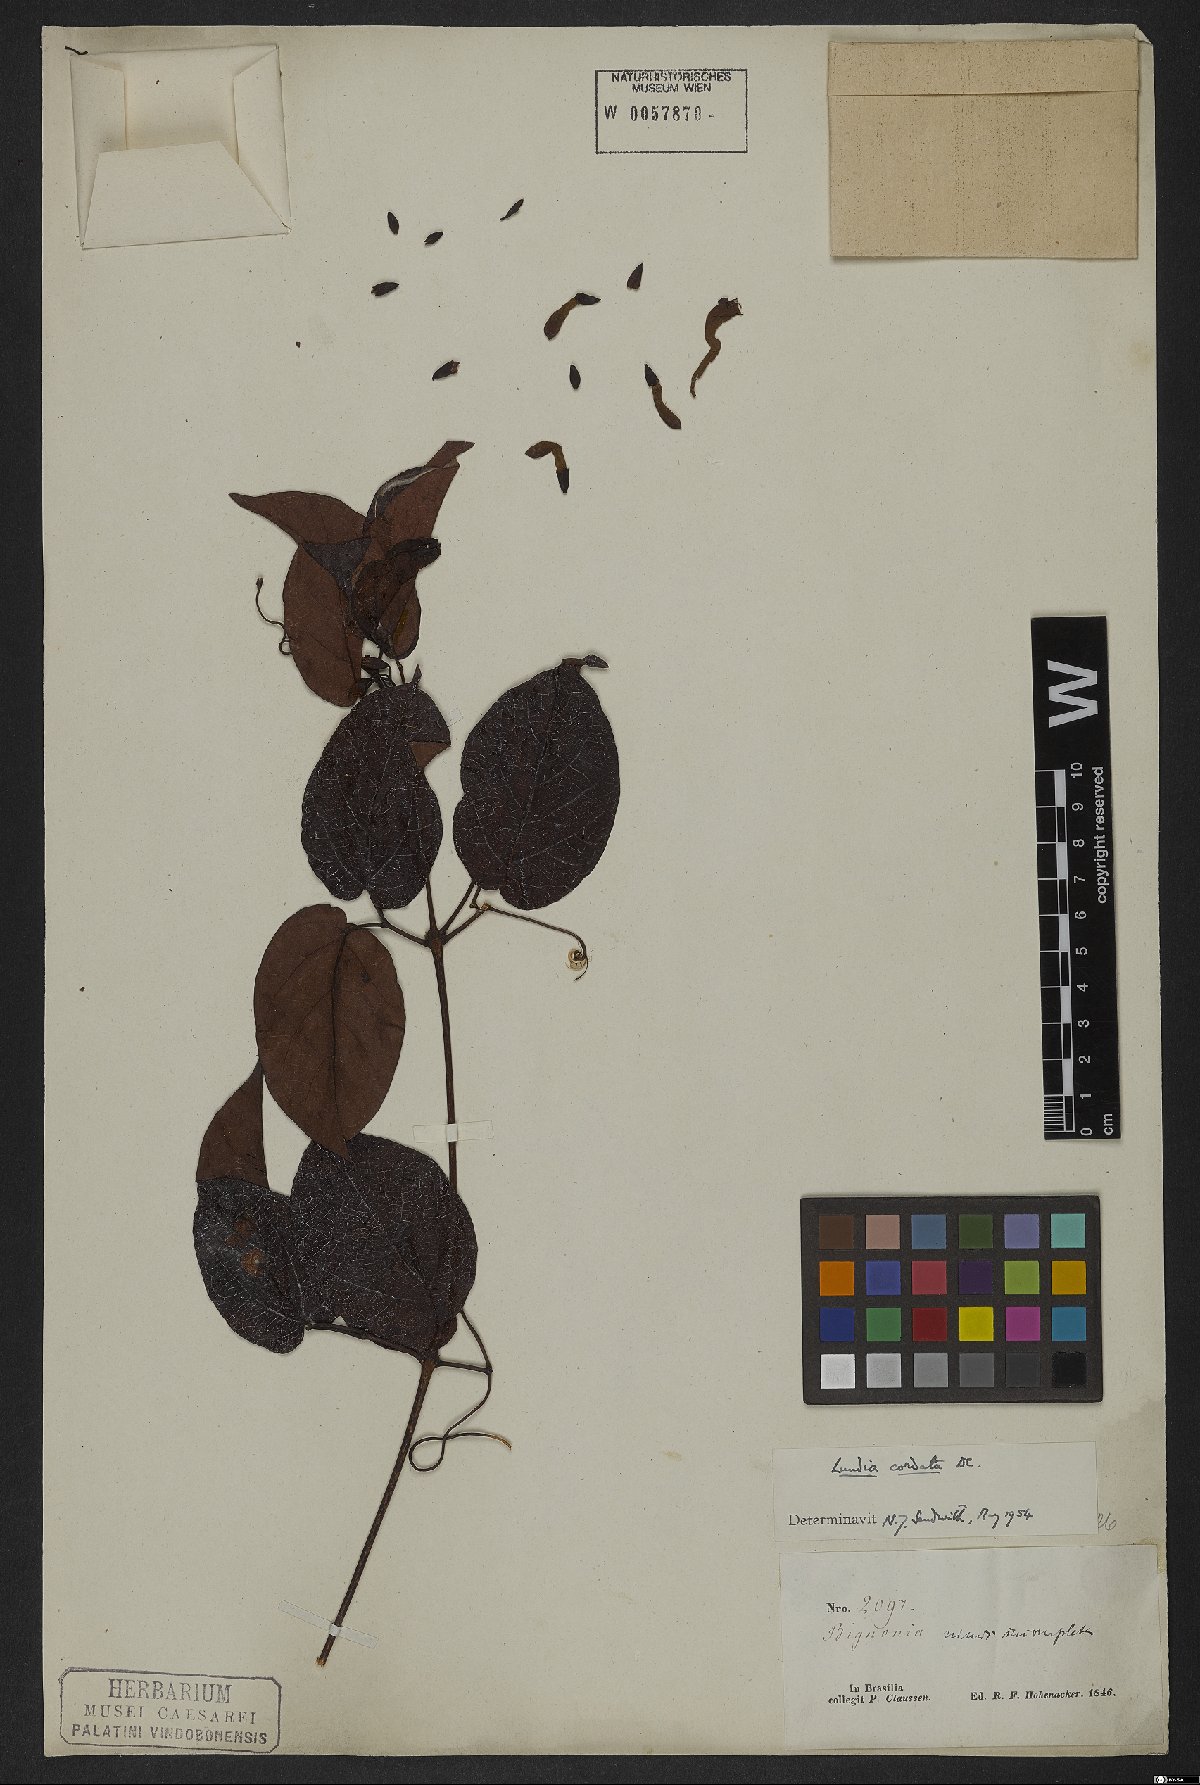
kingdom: Plantae
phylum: Tracheophyta
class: Magnoliopsida
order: Lamiales
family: Bignoniaceae
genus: Lundia
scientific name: Lundia corymbifera
